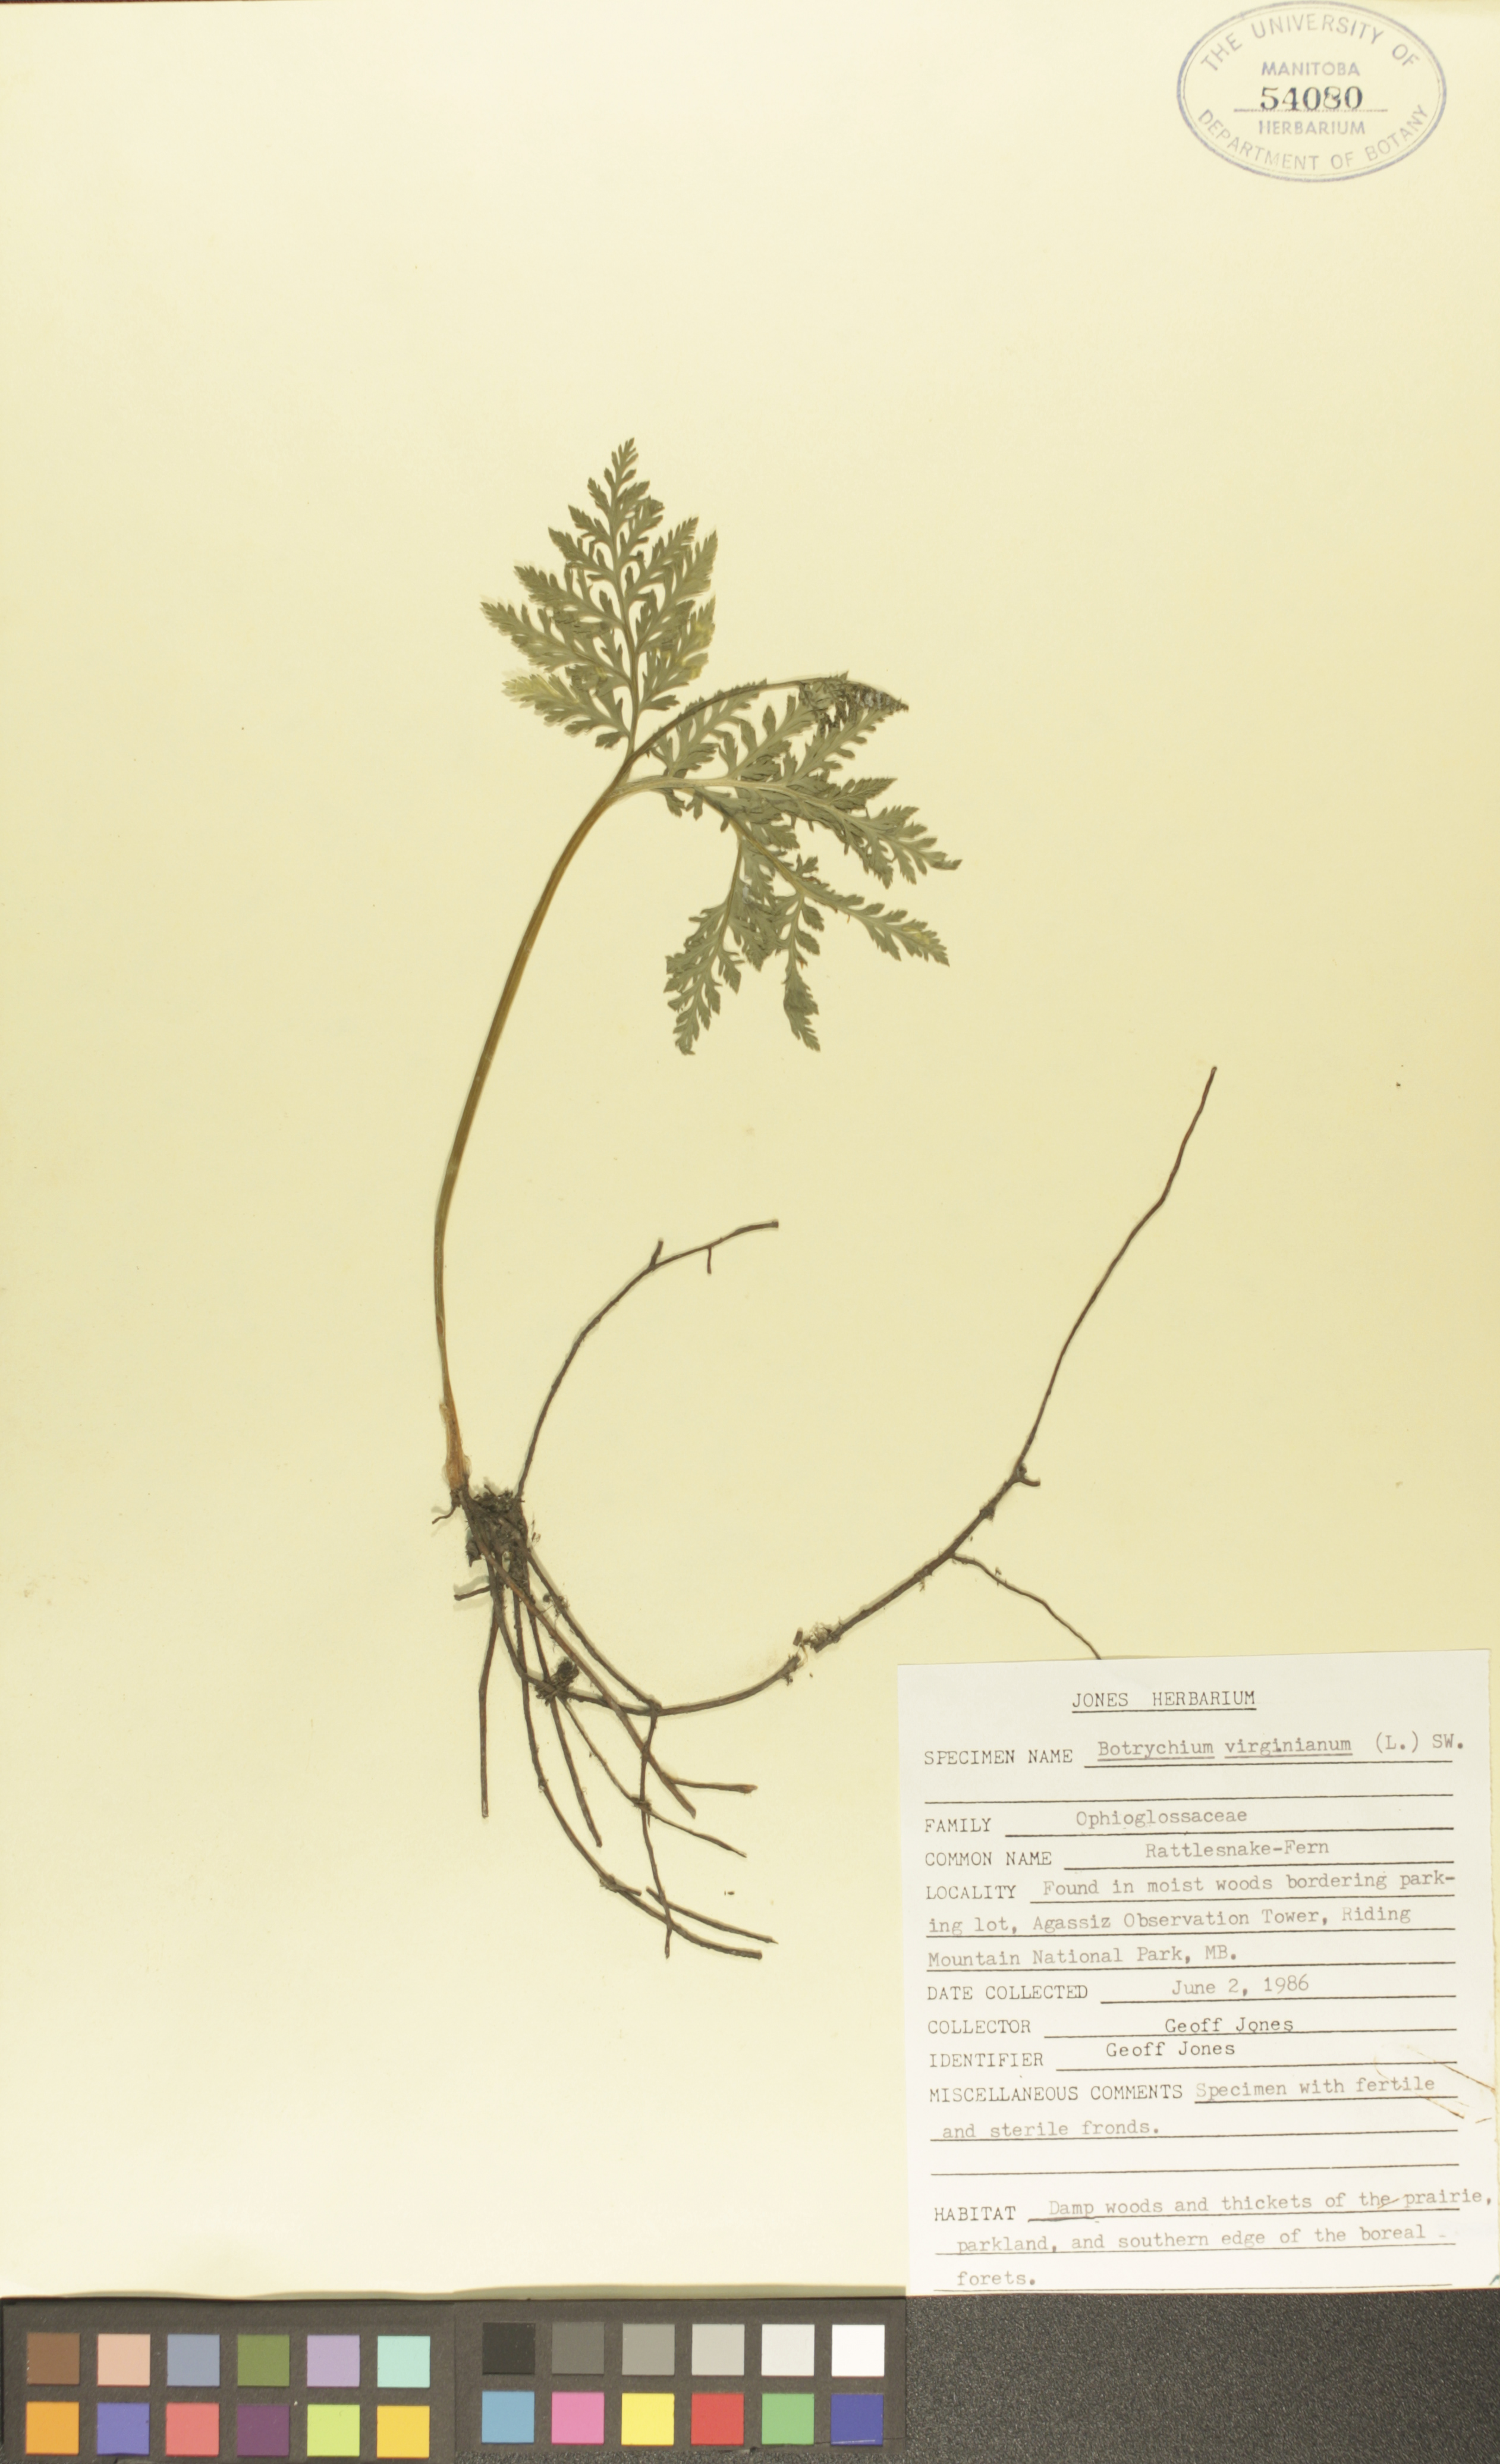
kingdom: Plantae
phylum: Tracheophyta
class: Polypodiopsida
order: Ophioglossales
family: Ophioglossaceae
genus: Botrypus
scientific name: Botrypus virginianus
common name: Common grapefern
